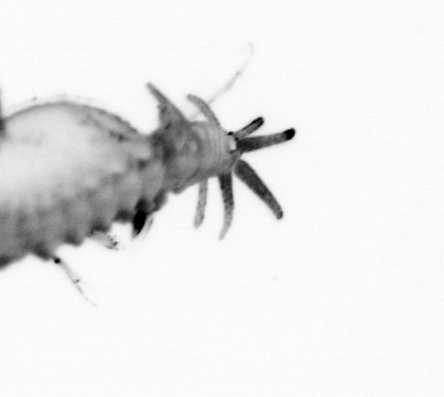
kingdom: Animalia
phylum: Annelida
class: Polychaeta
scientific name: Polychaeta
